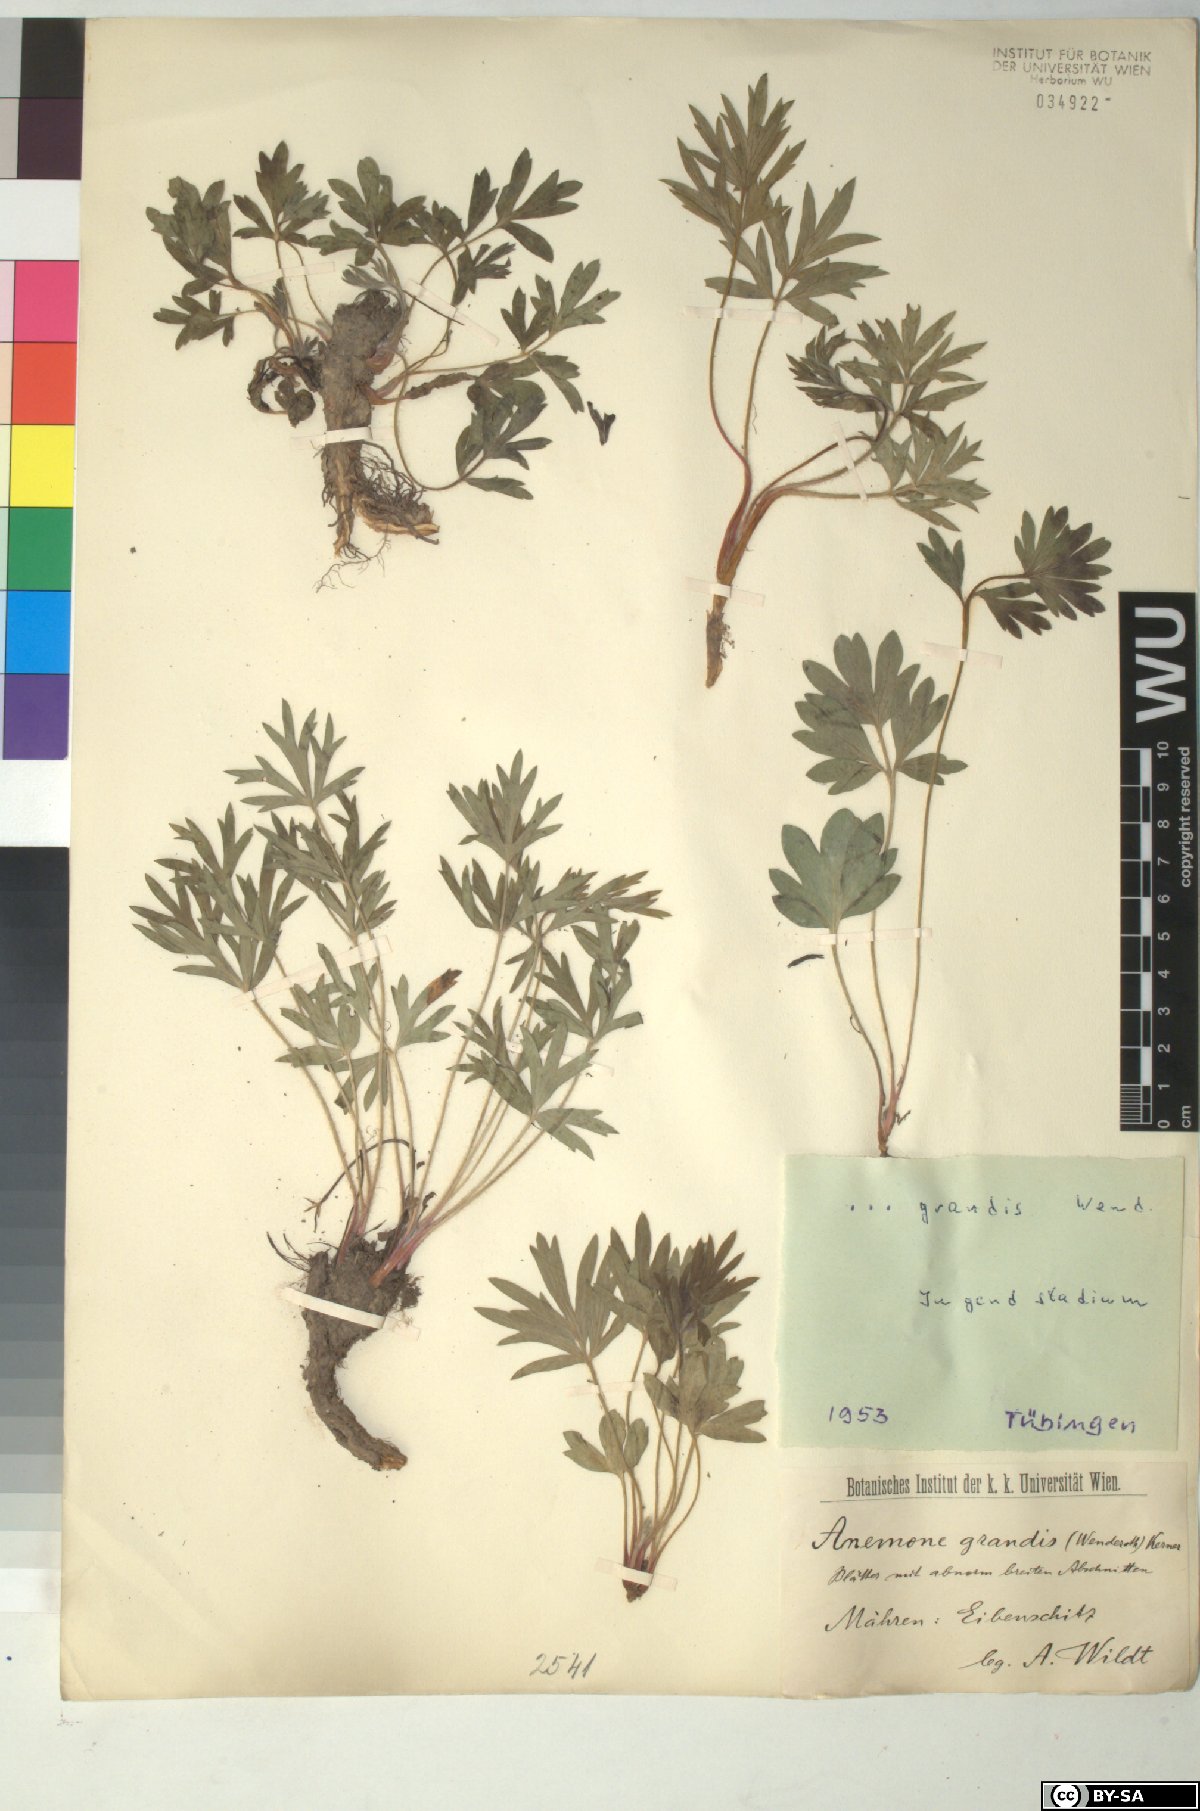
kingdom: Plantae
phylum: Tracheophyta
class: Magnoliopsida
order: Ranunculales
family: Ranunculaceae
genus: Pulsatilla
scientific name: Pulsatilla grandis
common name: Greater pasque flower
